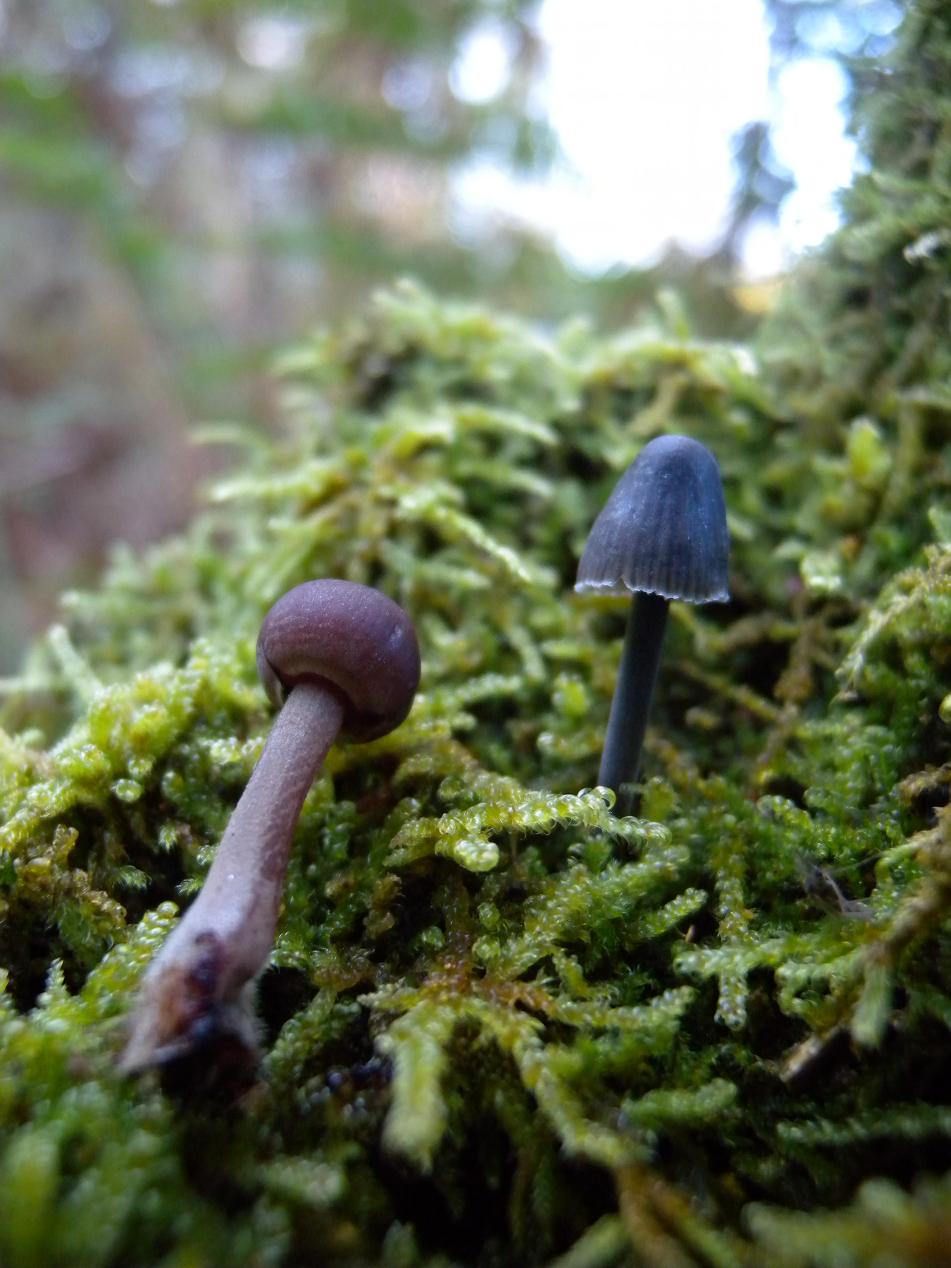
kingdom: Fungi
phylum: Basidiomycota
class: Agaricomycetes
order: Agaricales
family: Mycenaceae
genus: Mycena
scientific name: Mycena haematopus
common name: blødende huesvamp
